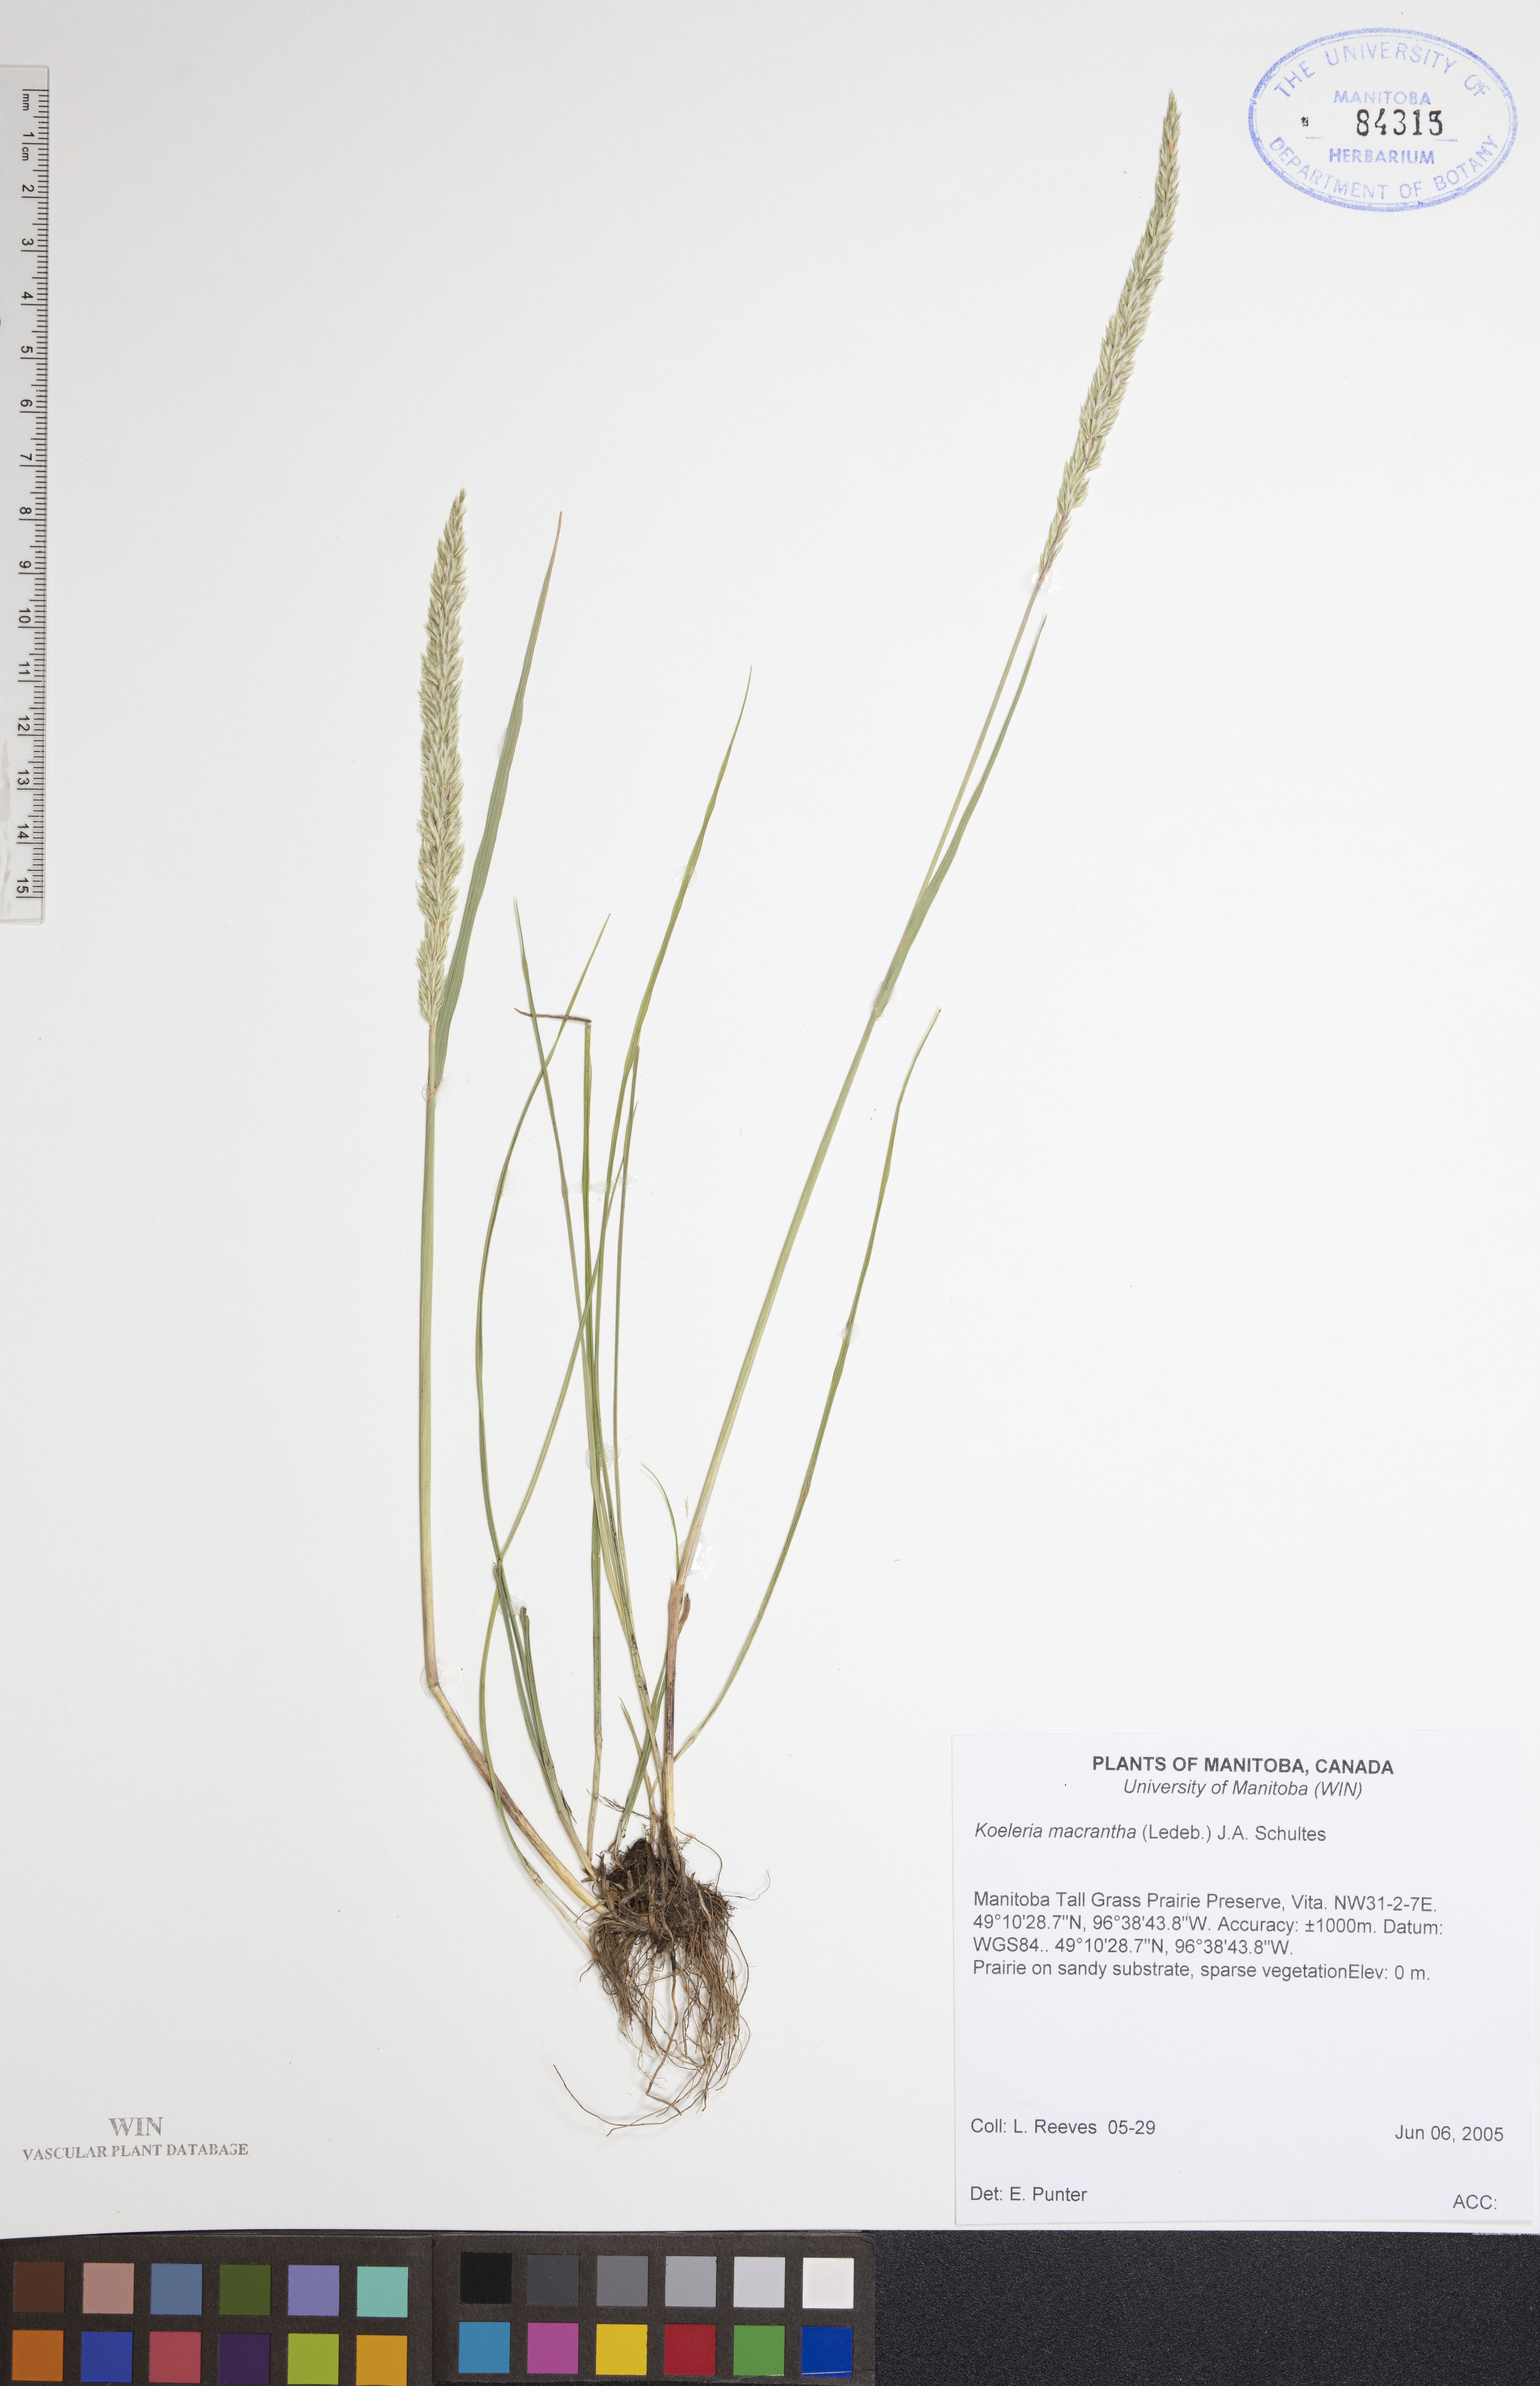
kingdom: Plantae
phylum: Tracheophyta
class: Liliopsida
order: Poales
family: Poaceae
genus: Koeleria
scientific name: Koeleria macrantha
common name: Crested hair-grass
